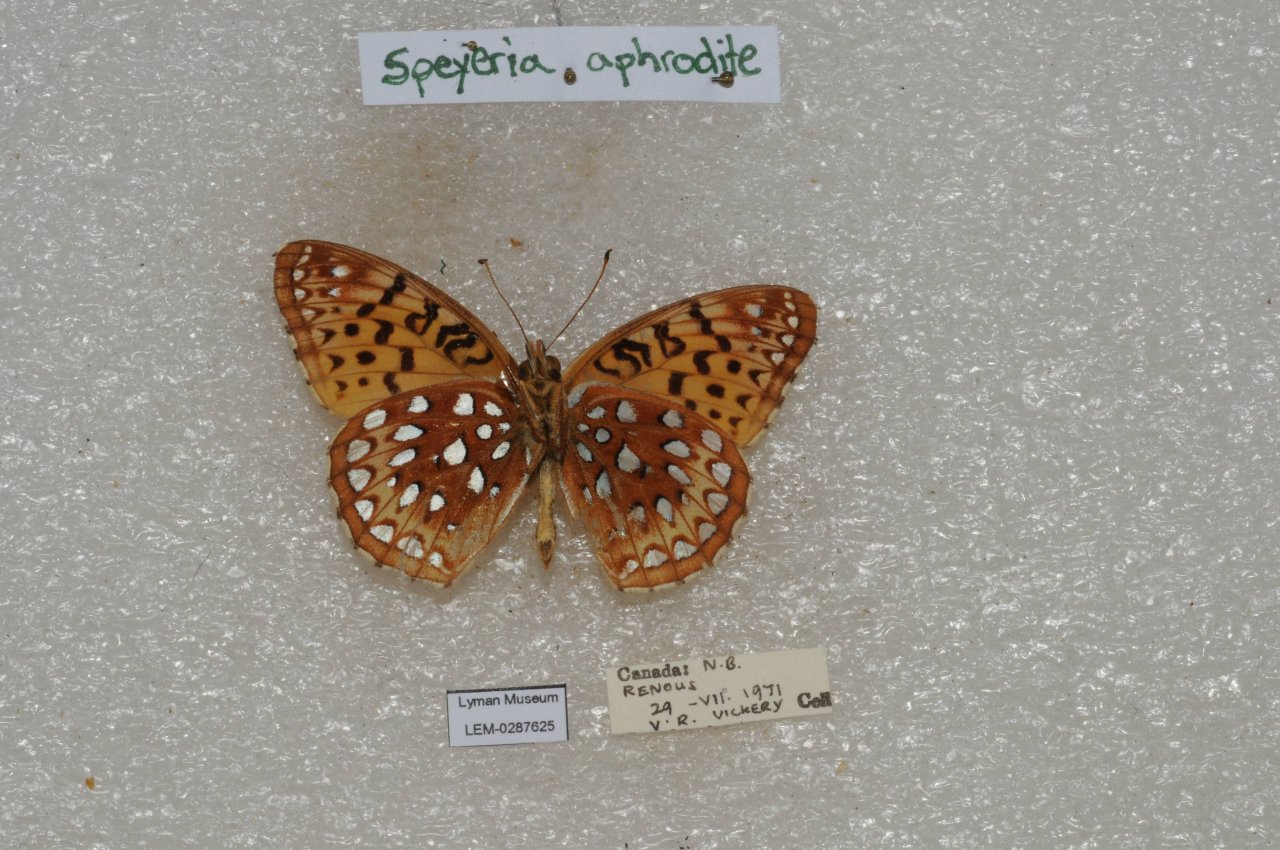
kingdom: Animalia
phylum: Arthropoda
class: Insecta
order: Lepidoptera
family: Nymphalidae
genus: Speyeria
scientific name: Speyeria aphrodite
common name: Aphrodite Fritillary
